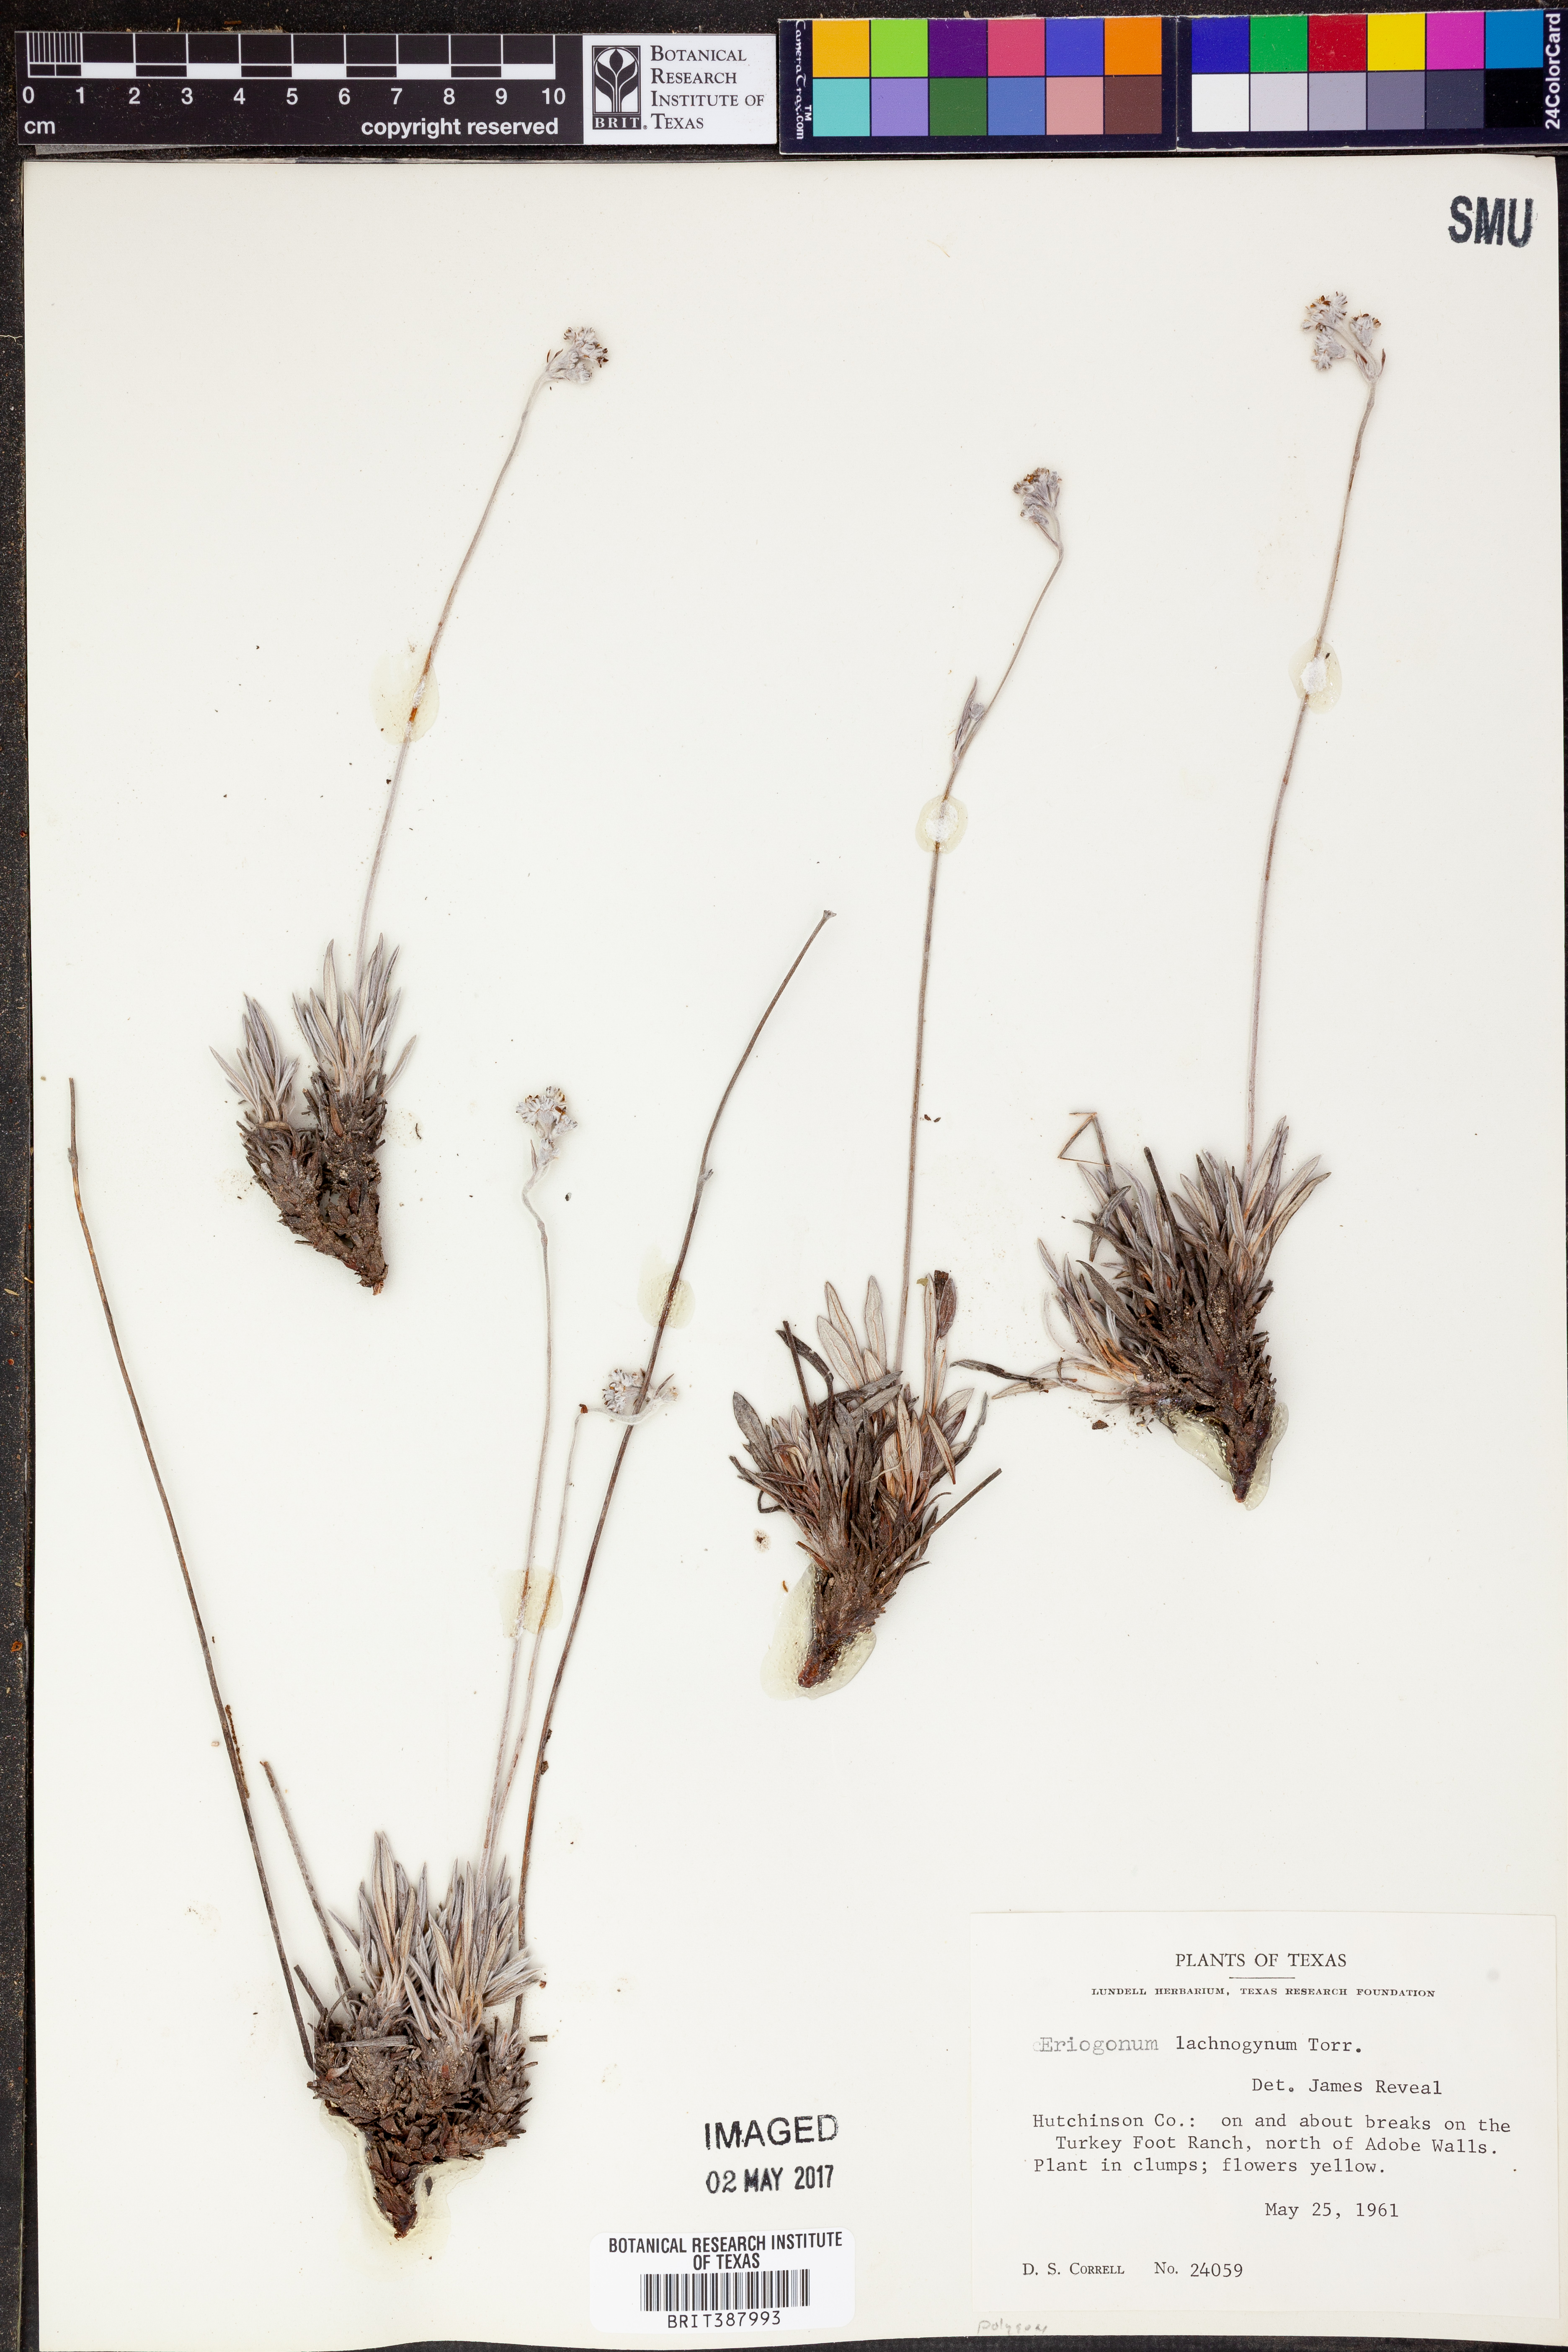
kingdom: Plantae
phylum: Tracheophyta
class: Magnoliopsida
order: Caryophyllales
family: Polygonaceae
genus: Eriogonum
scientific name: Eriogonum lachnogynum
